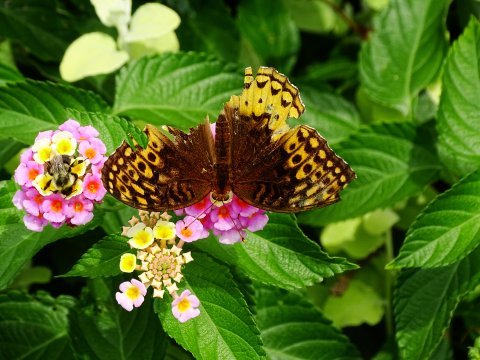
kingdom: Animalia
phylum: Arthropoda
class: Insecta
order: Lepidoptera
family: Nymphalidae
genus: Speyeria
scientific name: Speyeria cybele
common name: Great Spangled Fritillary
